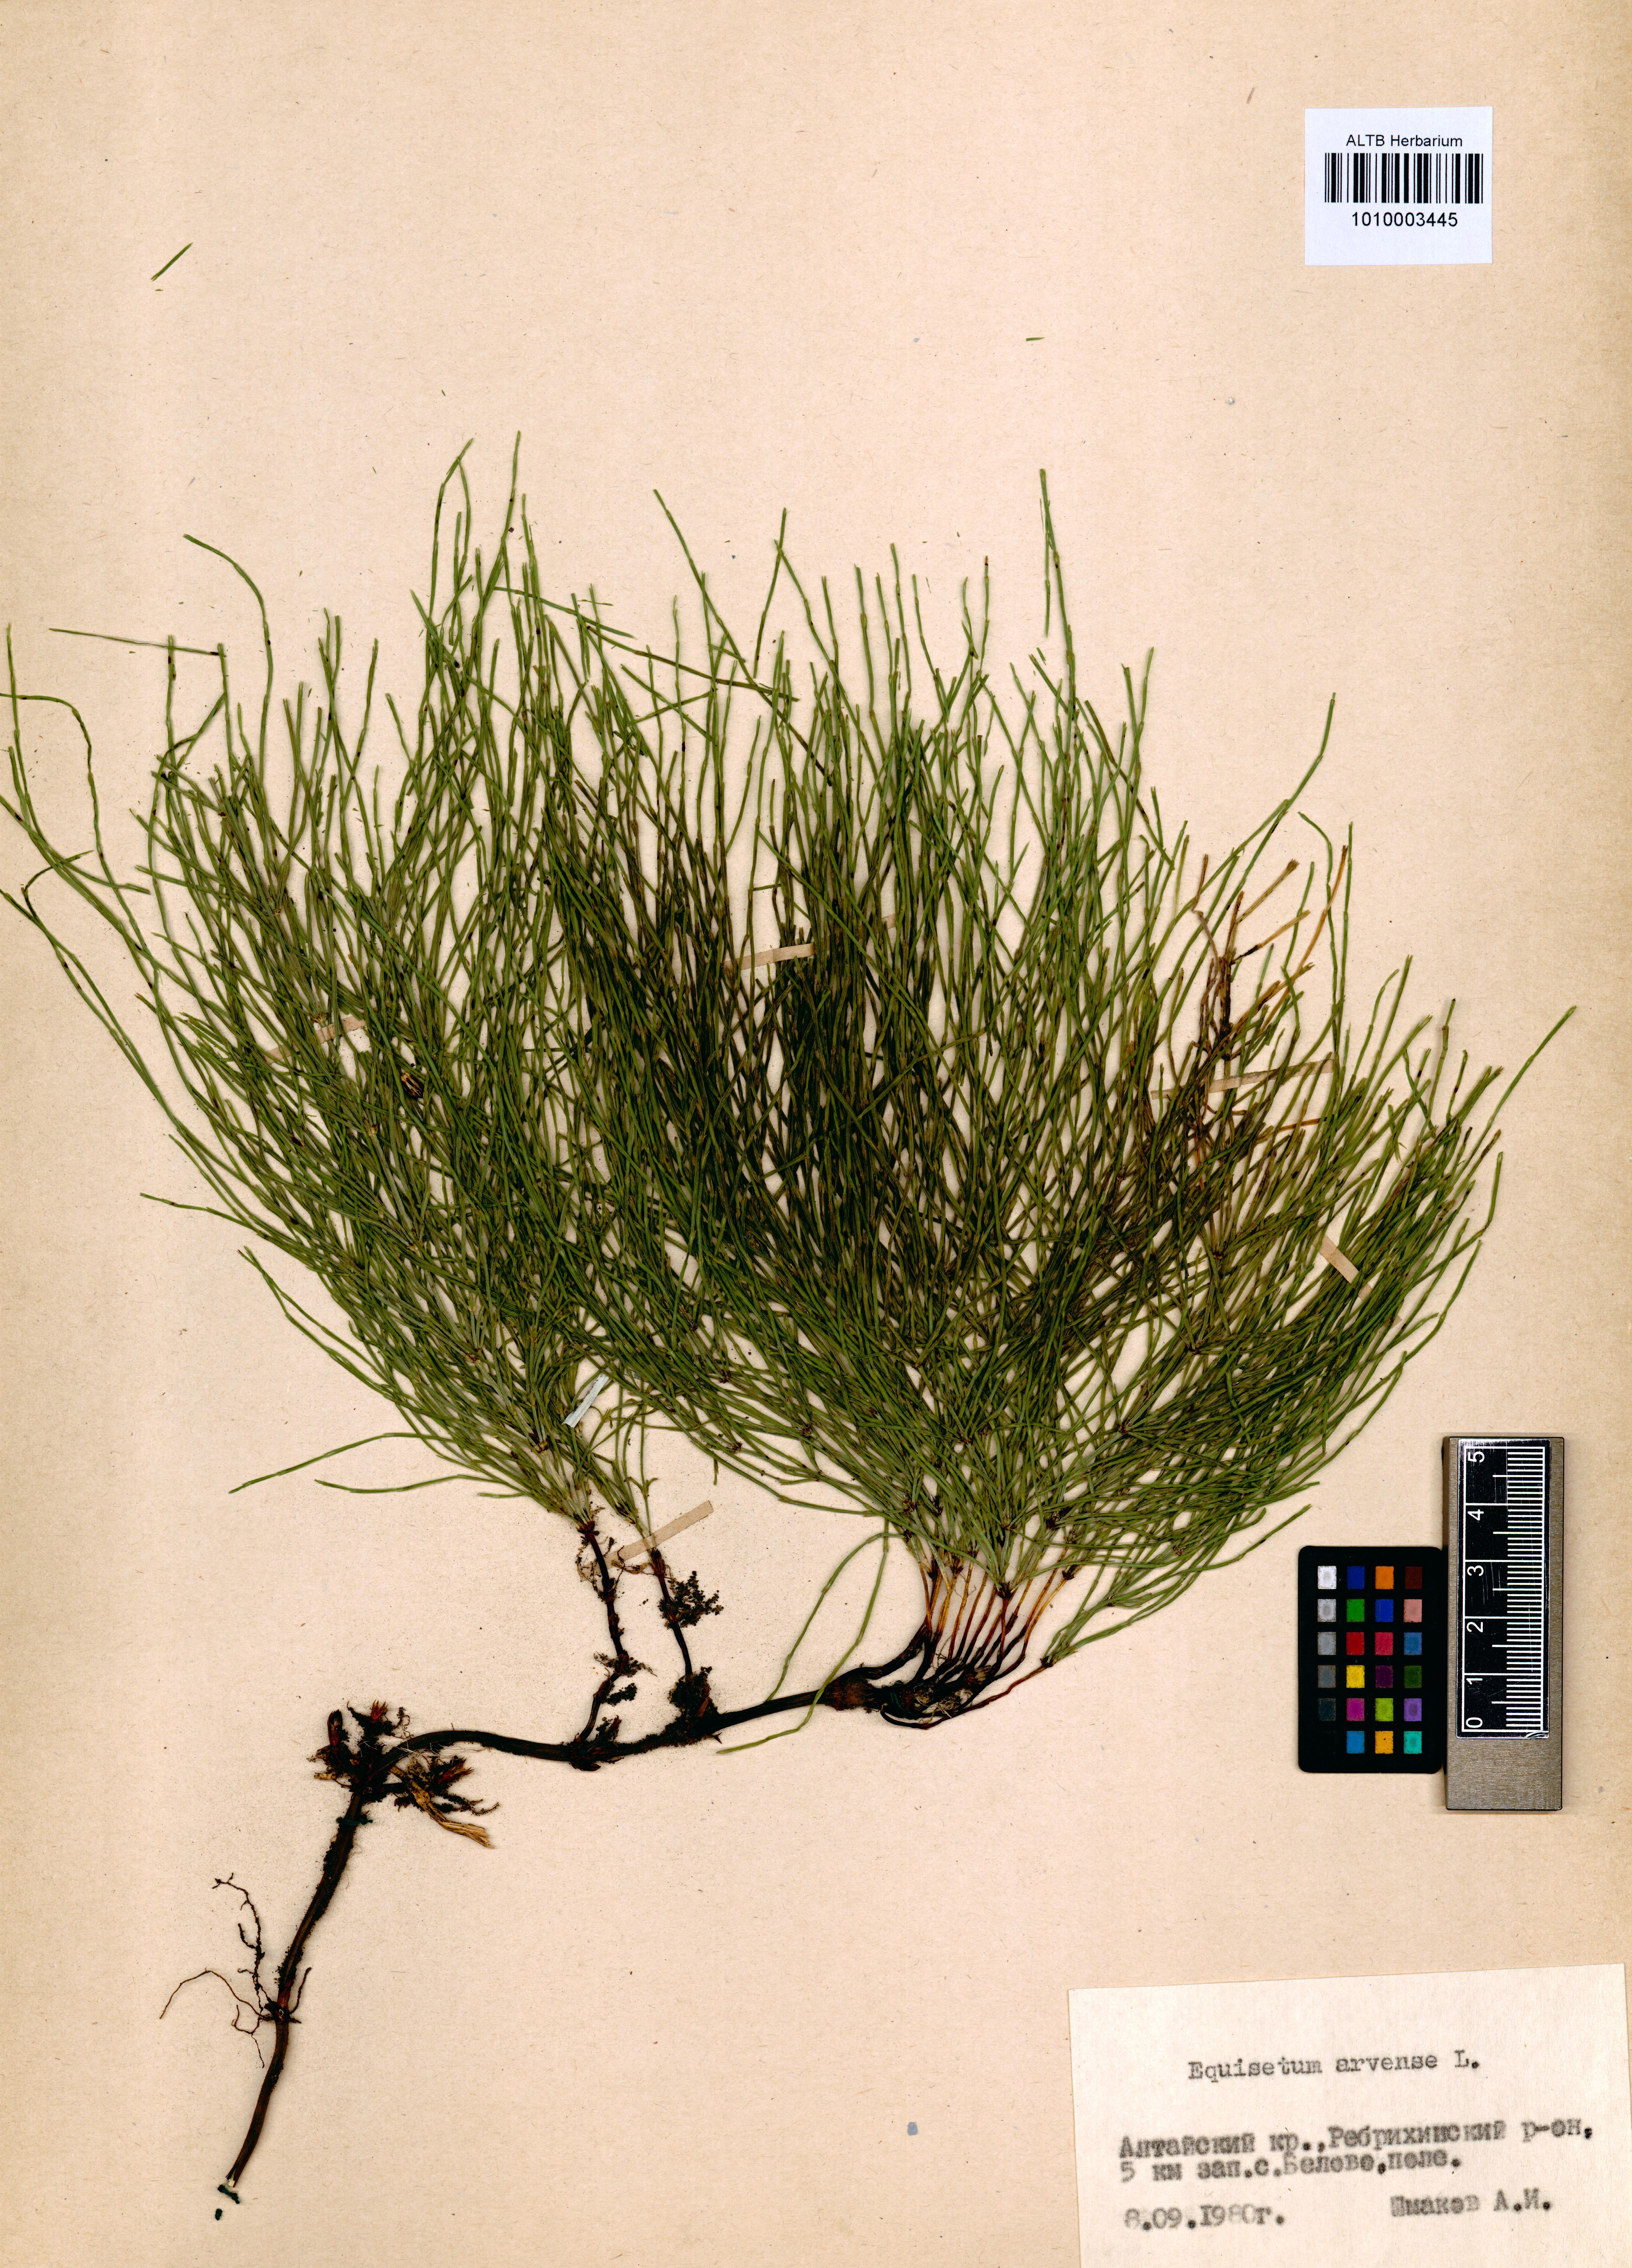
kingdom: Plantae
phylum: Tracheophyta
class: Polypodiopsida
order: Equisetales
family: Equisetaceae
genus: Equisetum
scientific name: Equisetum arvense
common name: Field horsetail
